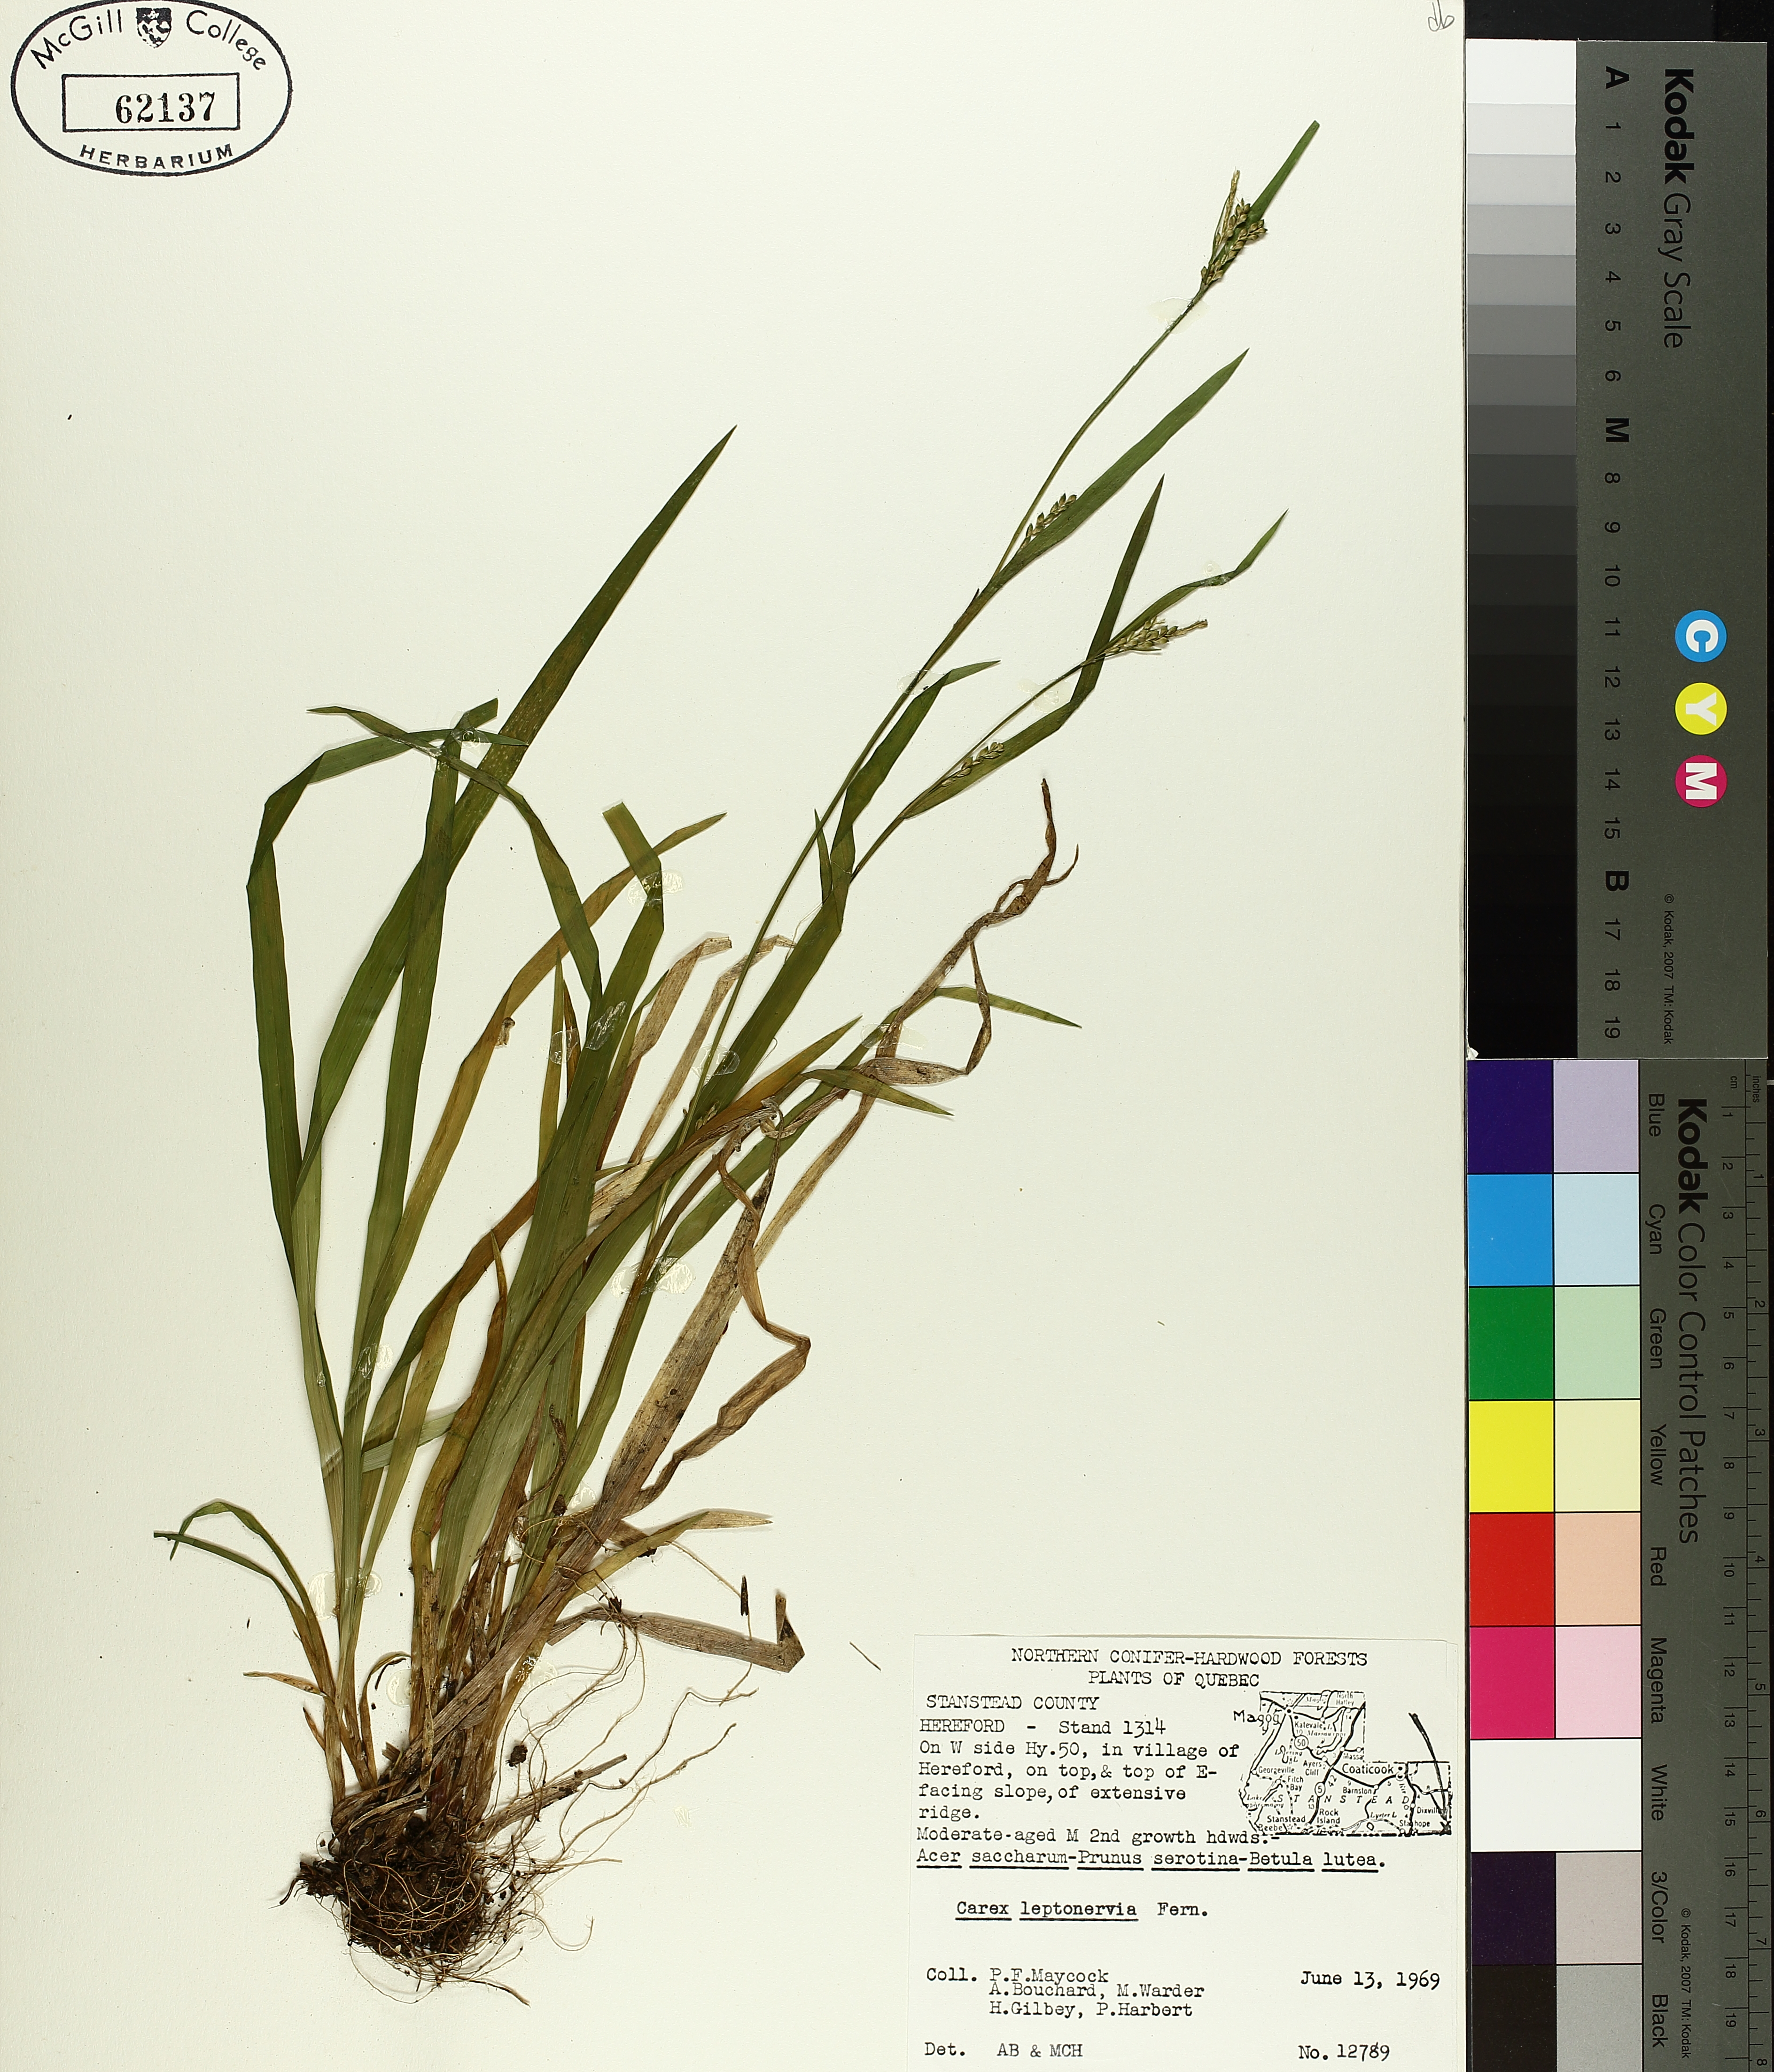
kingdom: Plantae
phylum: Tracheophyta
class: Liliopsida
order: Poales
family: Cyperaceae
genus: Carex
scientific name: Carex leptonervia
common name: Few-nerved wood sedge
